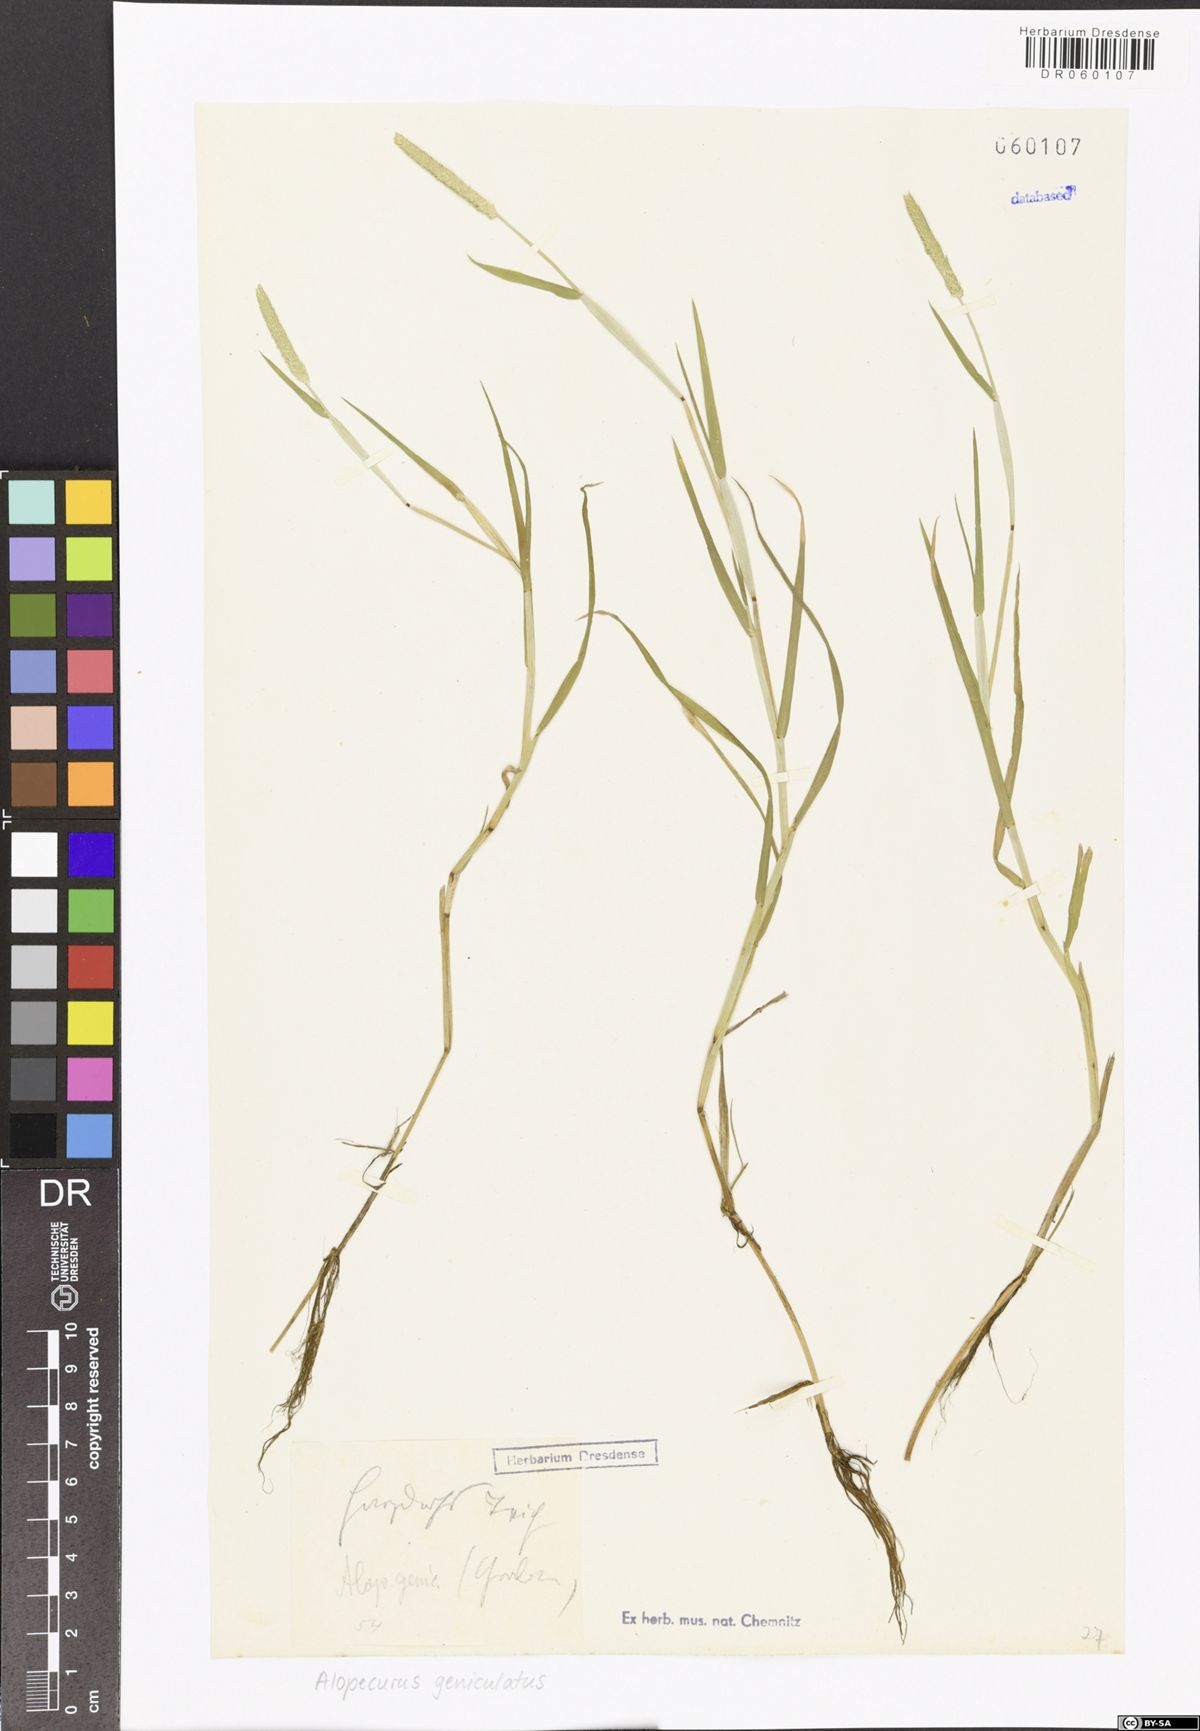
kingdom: Plantae
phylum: Tracheophyta
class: Liliopsida
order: Poales
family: Poaceae
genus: Alopecurus
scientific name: Alopecurus geniculatus
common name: Water foxtail
